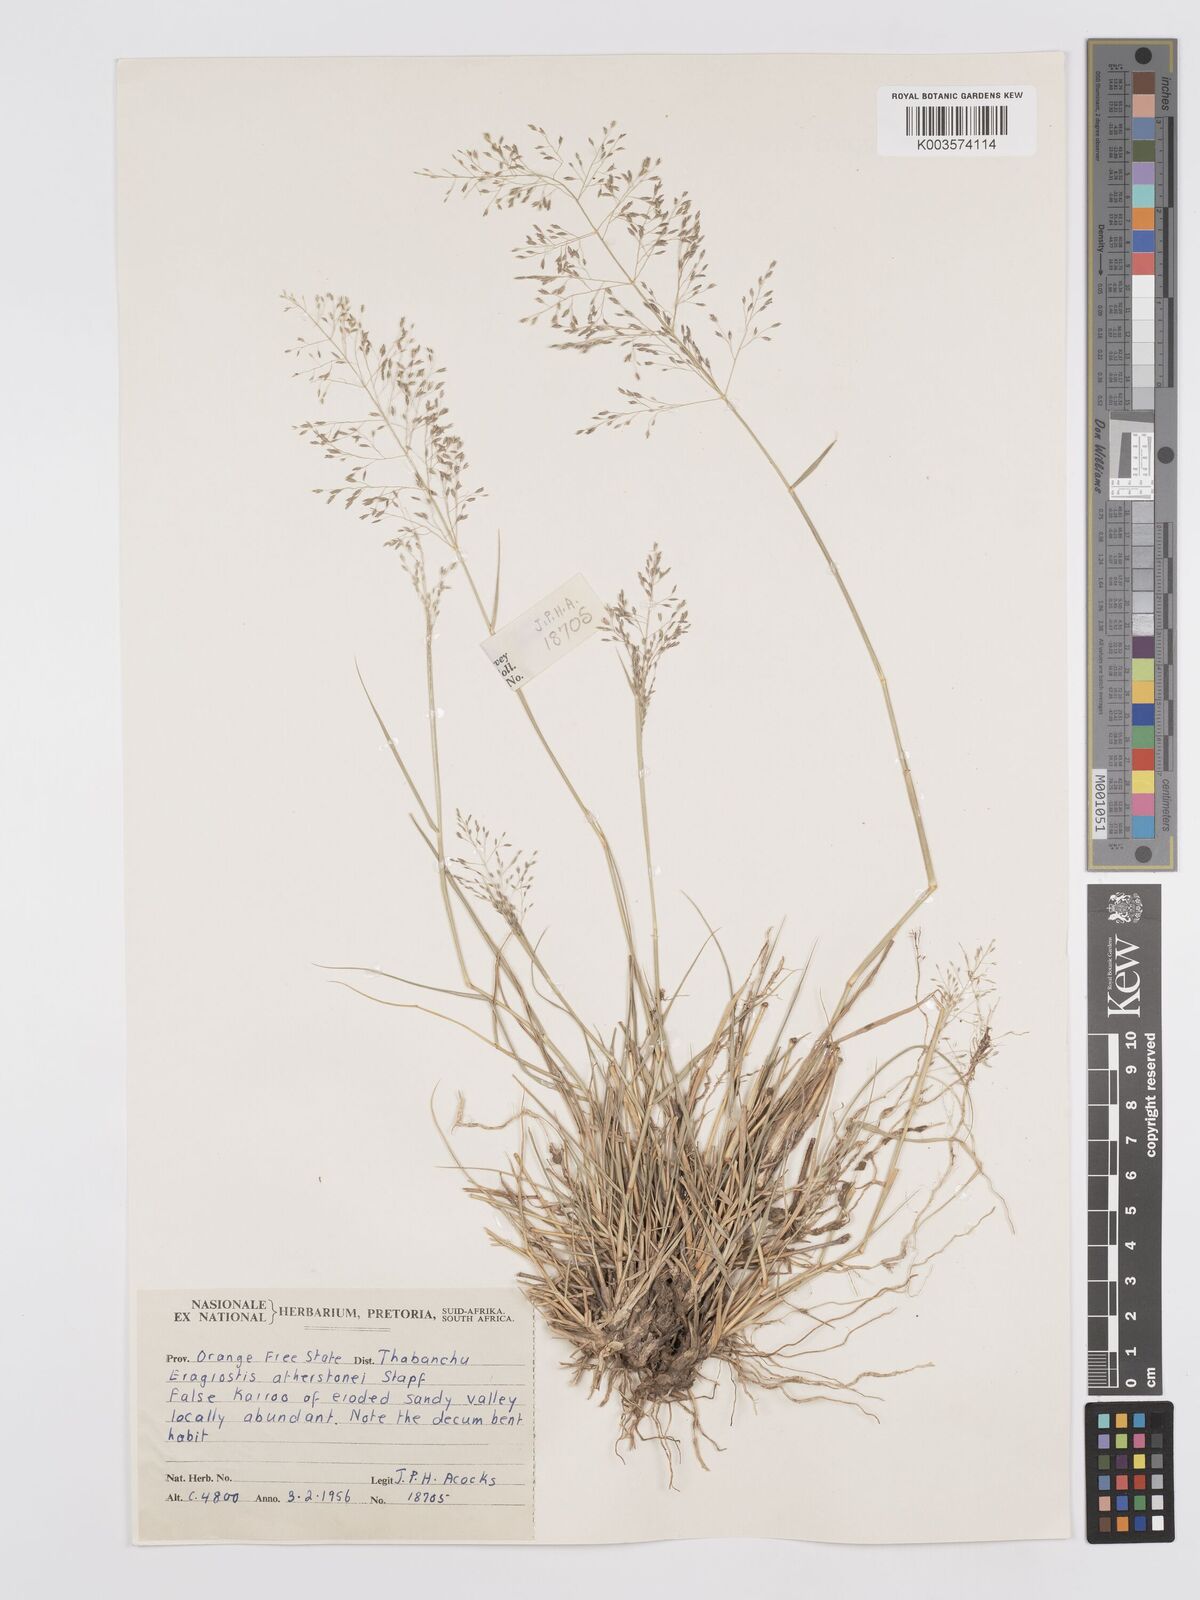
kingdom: Plantae
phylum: Tracheophyta
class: Liliopsida
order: Poales
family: Poaceae
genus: Eragrostis
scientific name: Eragrostis cylindriflora
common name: Cylinderflower lovegrass
